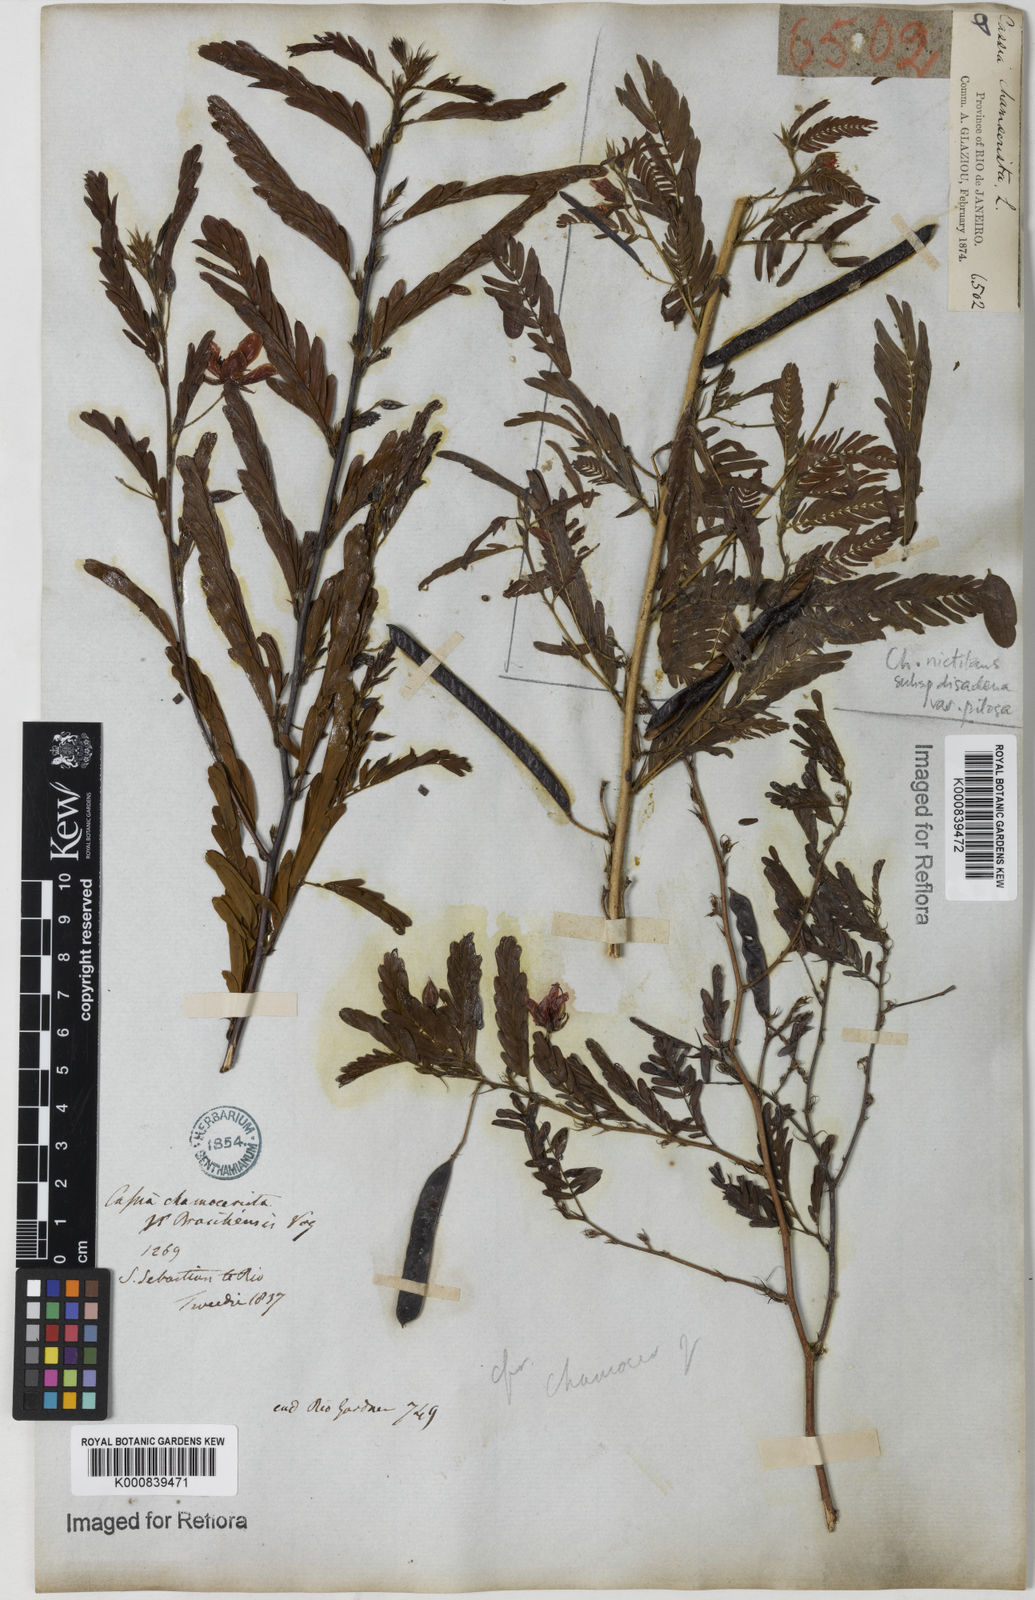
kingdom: Plantae
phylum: Tracheophyta
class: Magnoliopsida
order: Fabales
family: Fabaceae
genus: Chamaecrista
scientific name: Chamaecrista glandulosa
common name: Wild peas
